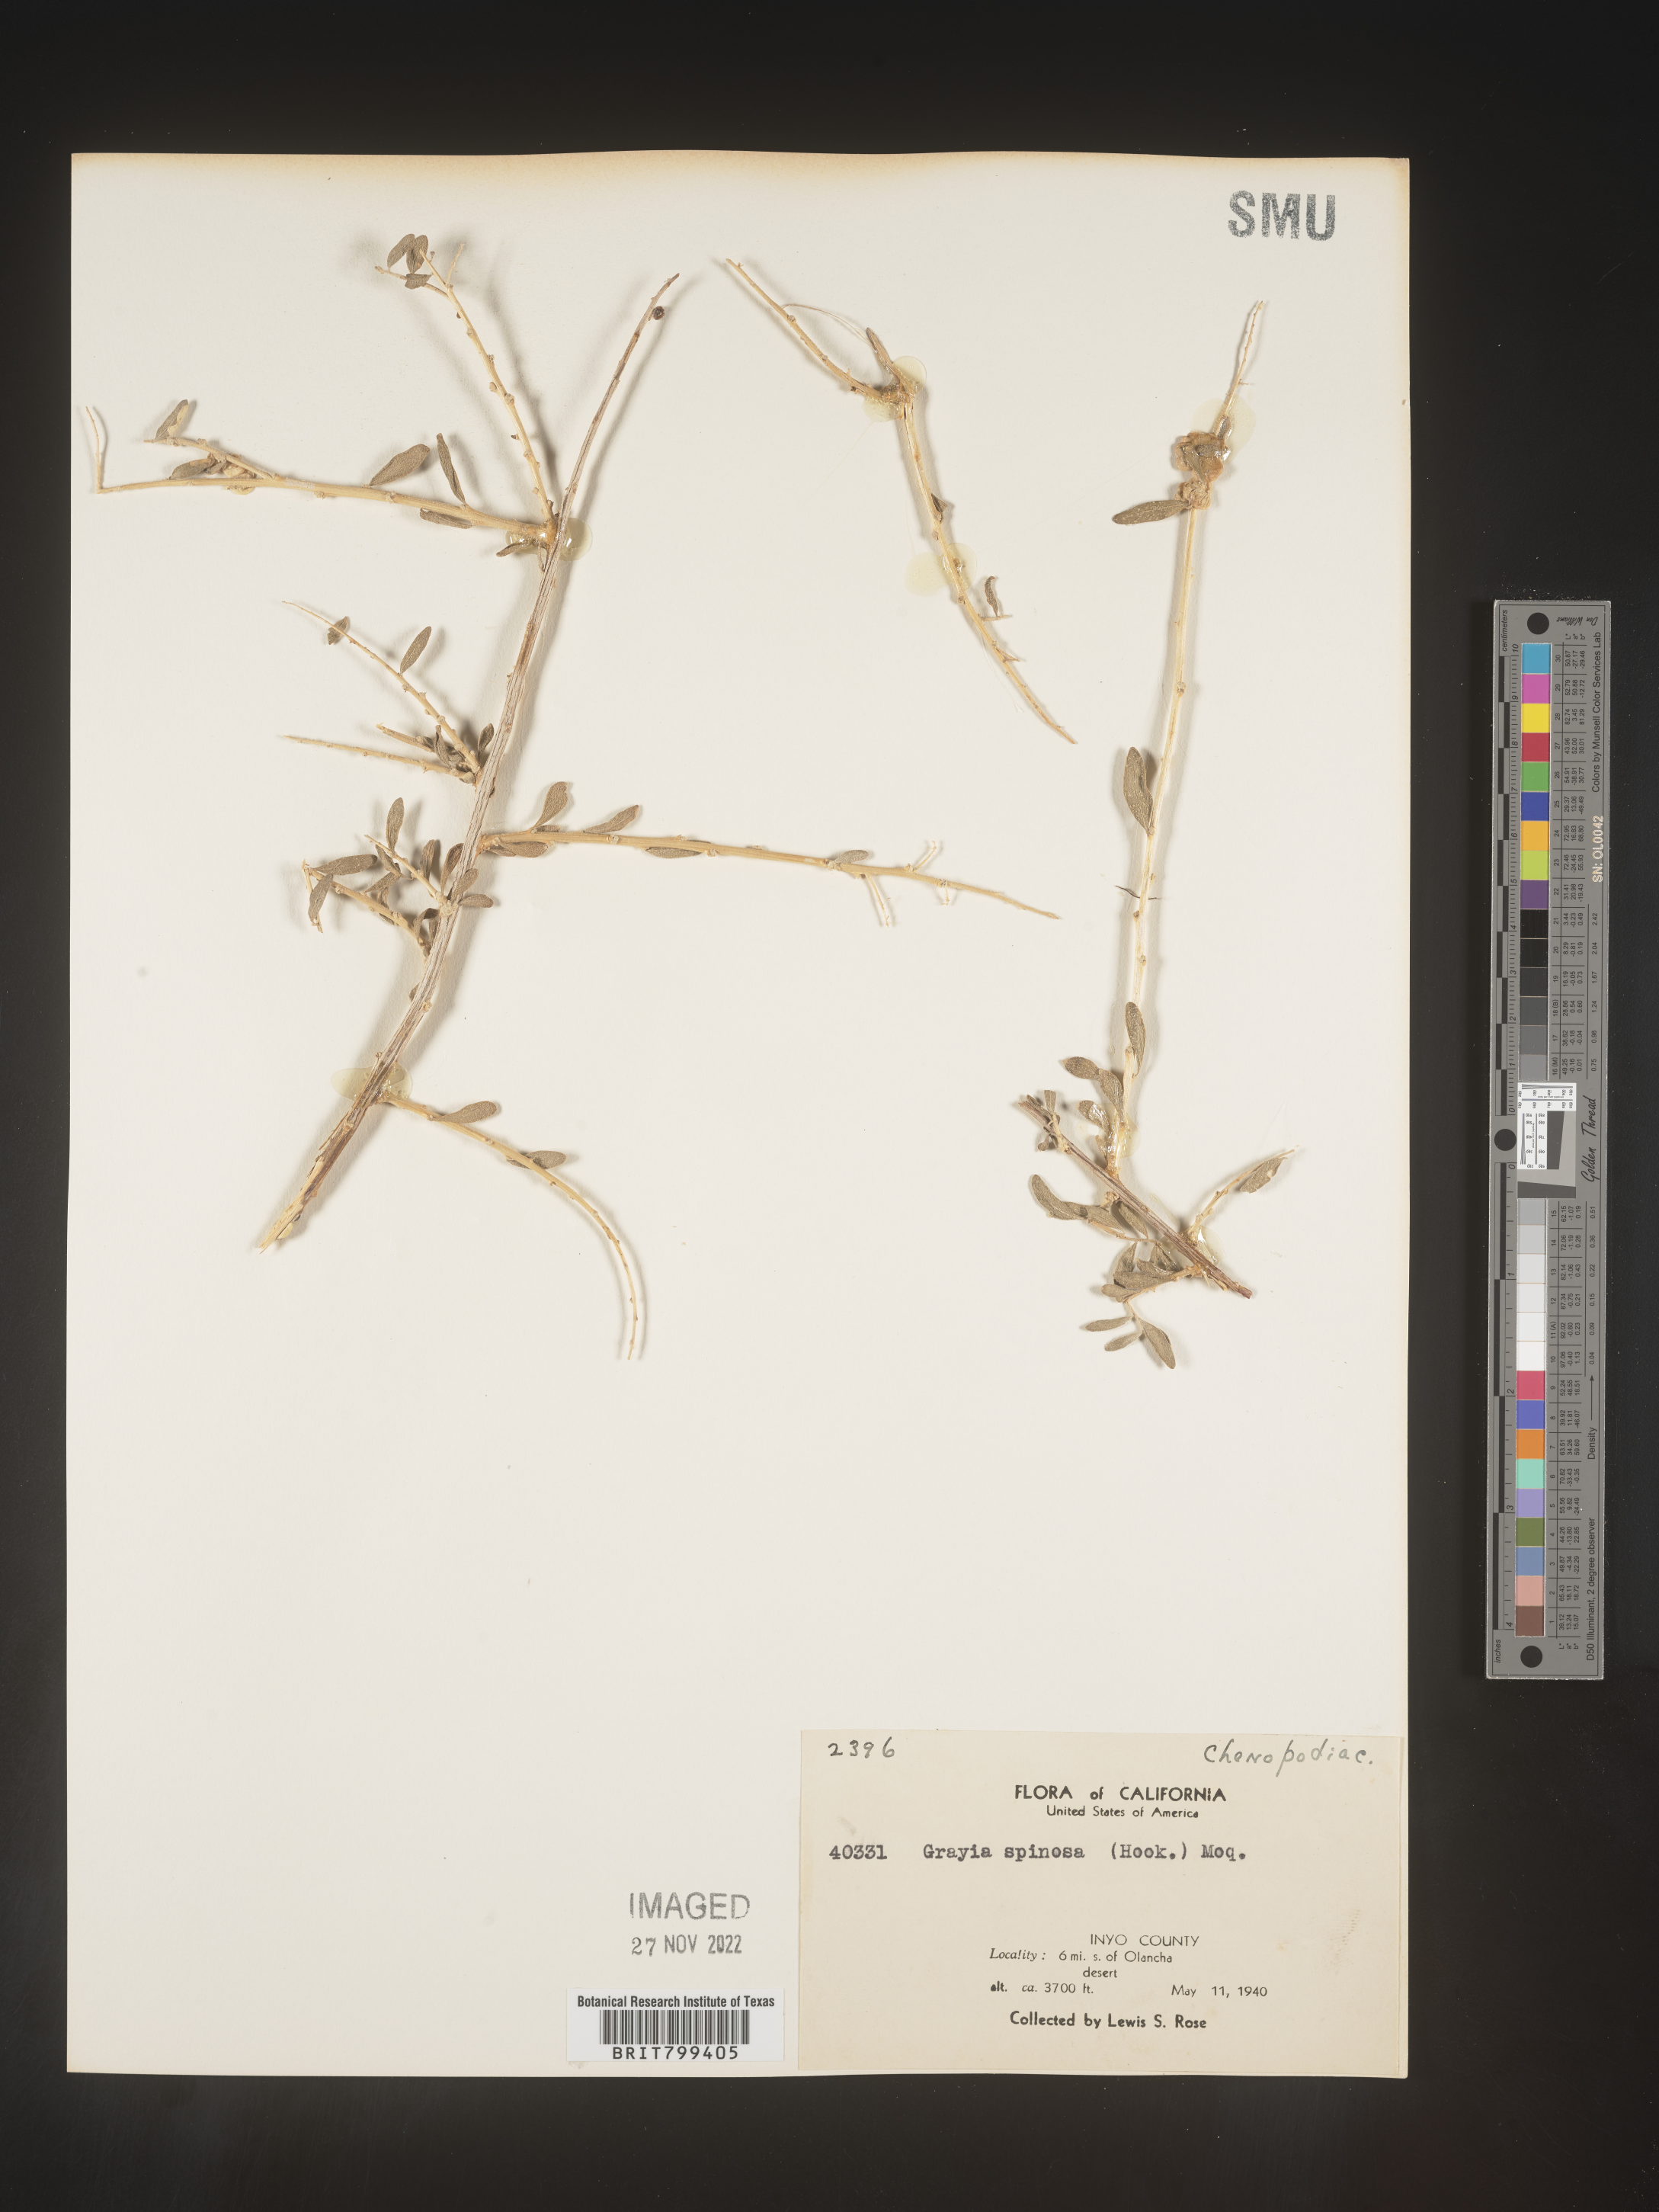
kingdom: Plantae
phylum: Tracheophyta
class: Magnoliopsida
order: Caryophyllales
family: Amaranthaceae
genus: Grayia
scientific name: Grayia spinosa
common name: Spiny hopsage
